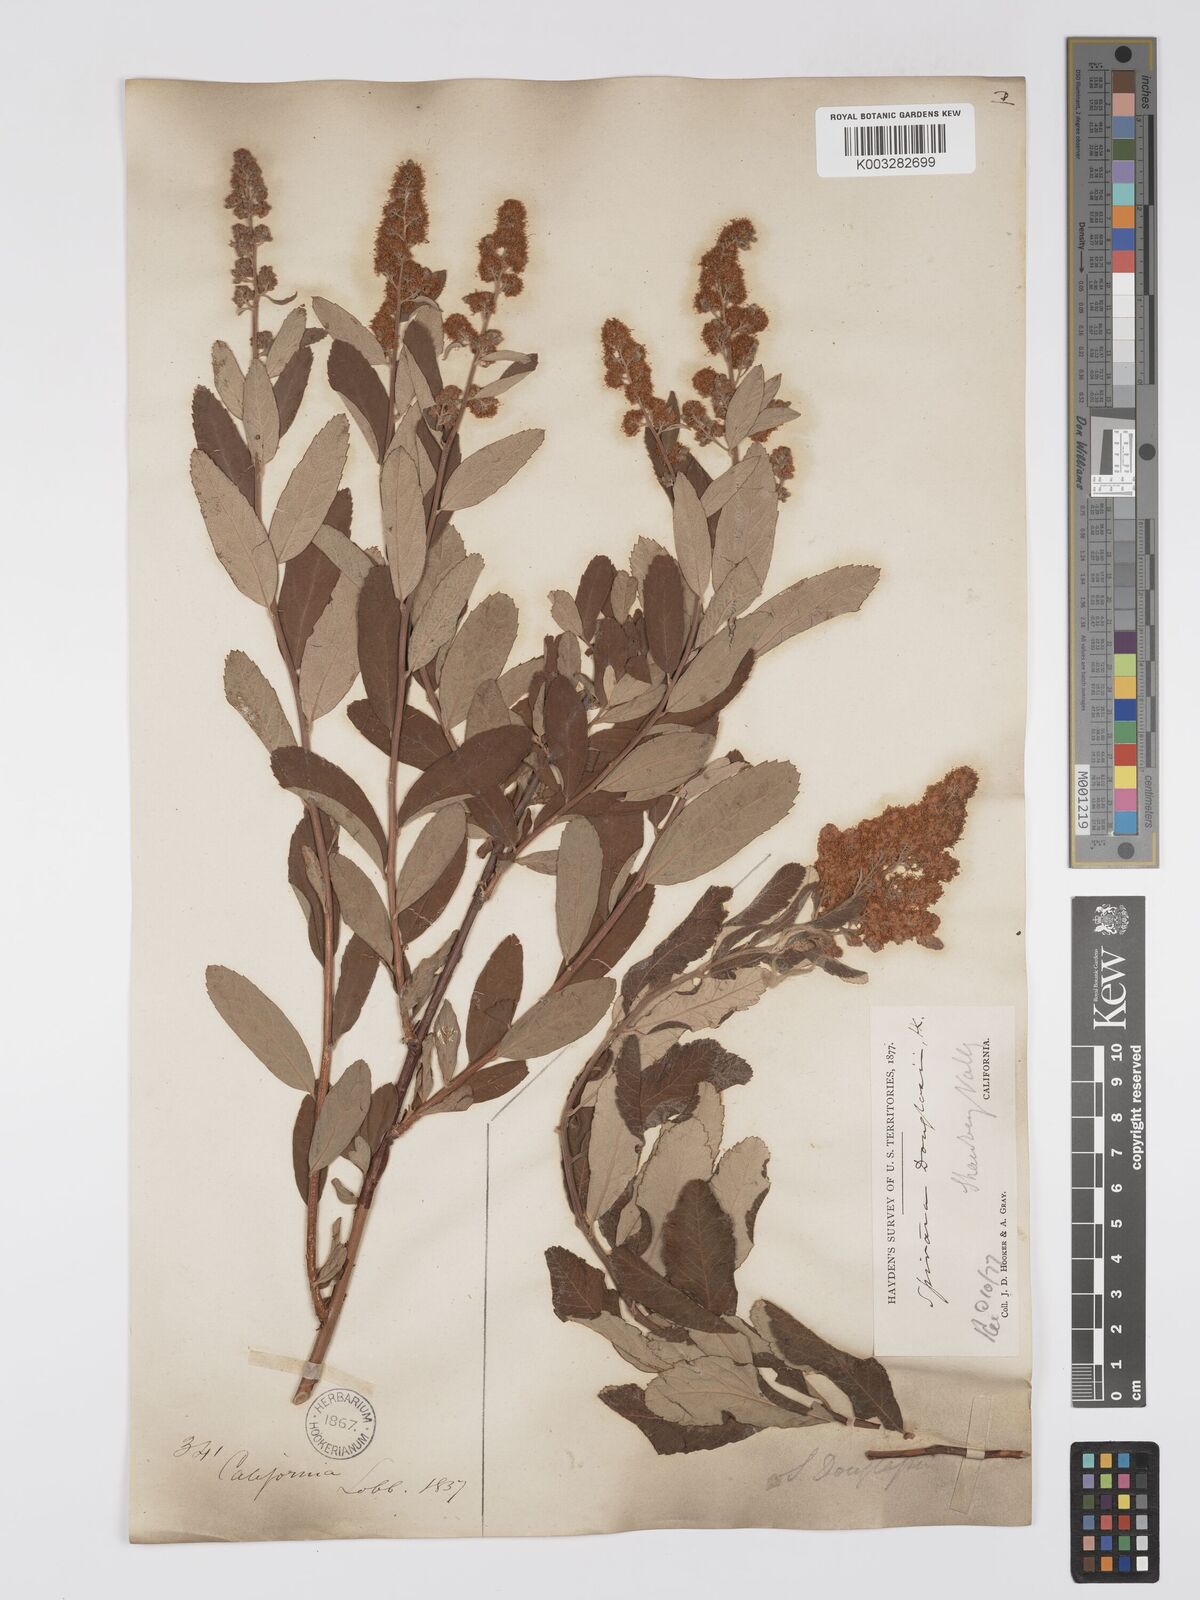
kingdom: Plantae
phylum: Tracheophyta
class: Magnoliopsida
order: Rosales
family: Rosaceae
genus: Spiraea
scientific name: Spiraea douglasii
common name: Steeplebush
